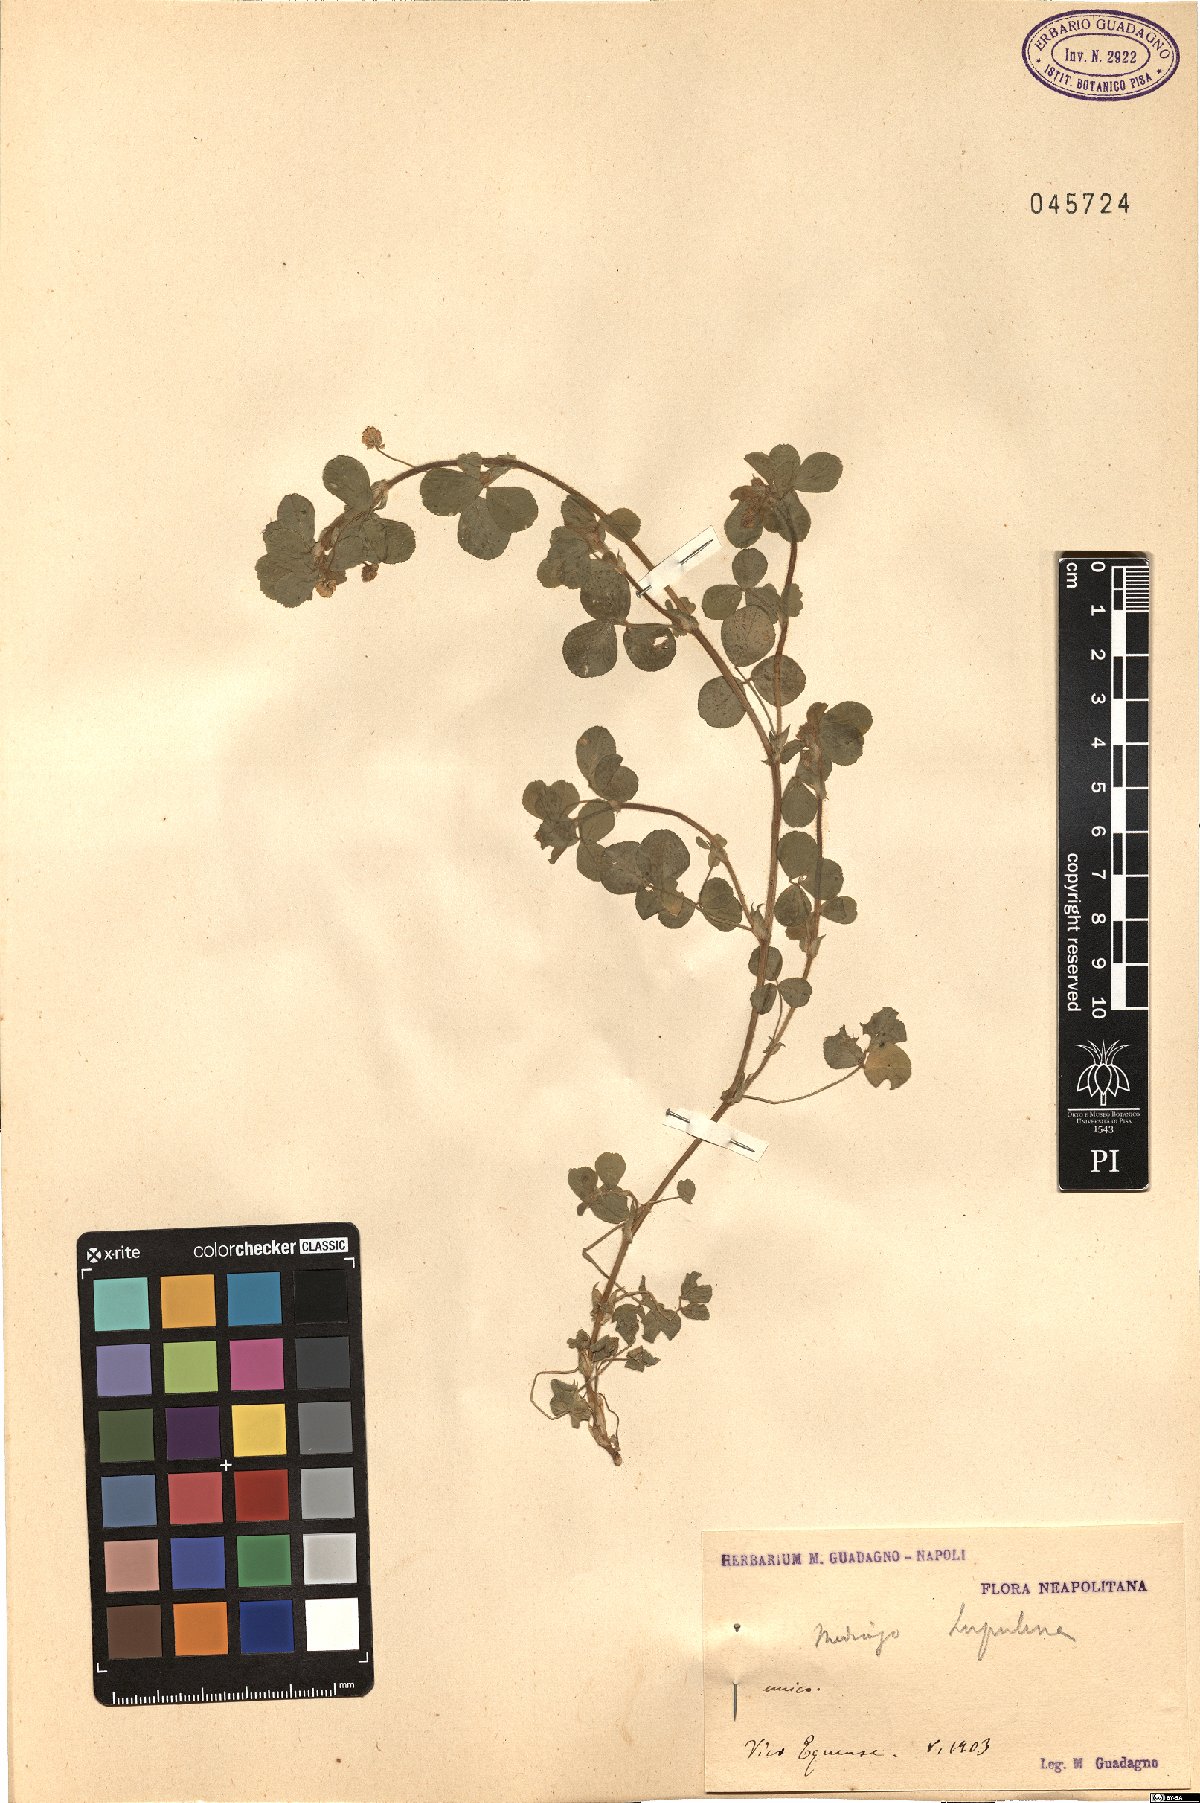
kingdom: Plantae
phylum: Tracheophyta
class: Magnoliopsida
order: Fabales
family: Fabaceae
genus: Medicago
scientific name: Medicago lupulina
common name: Black medick
